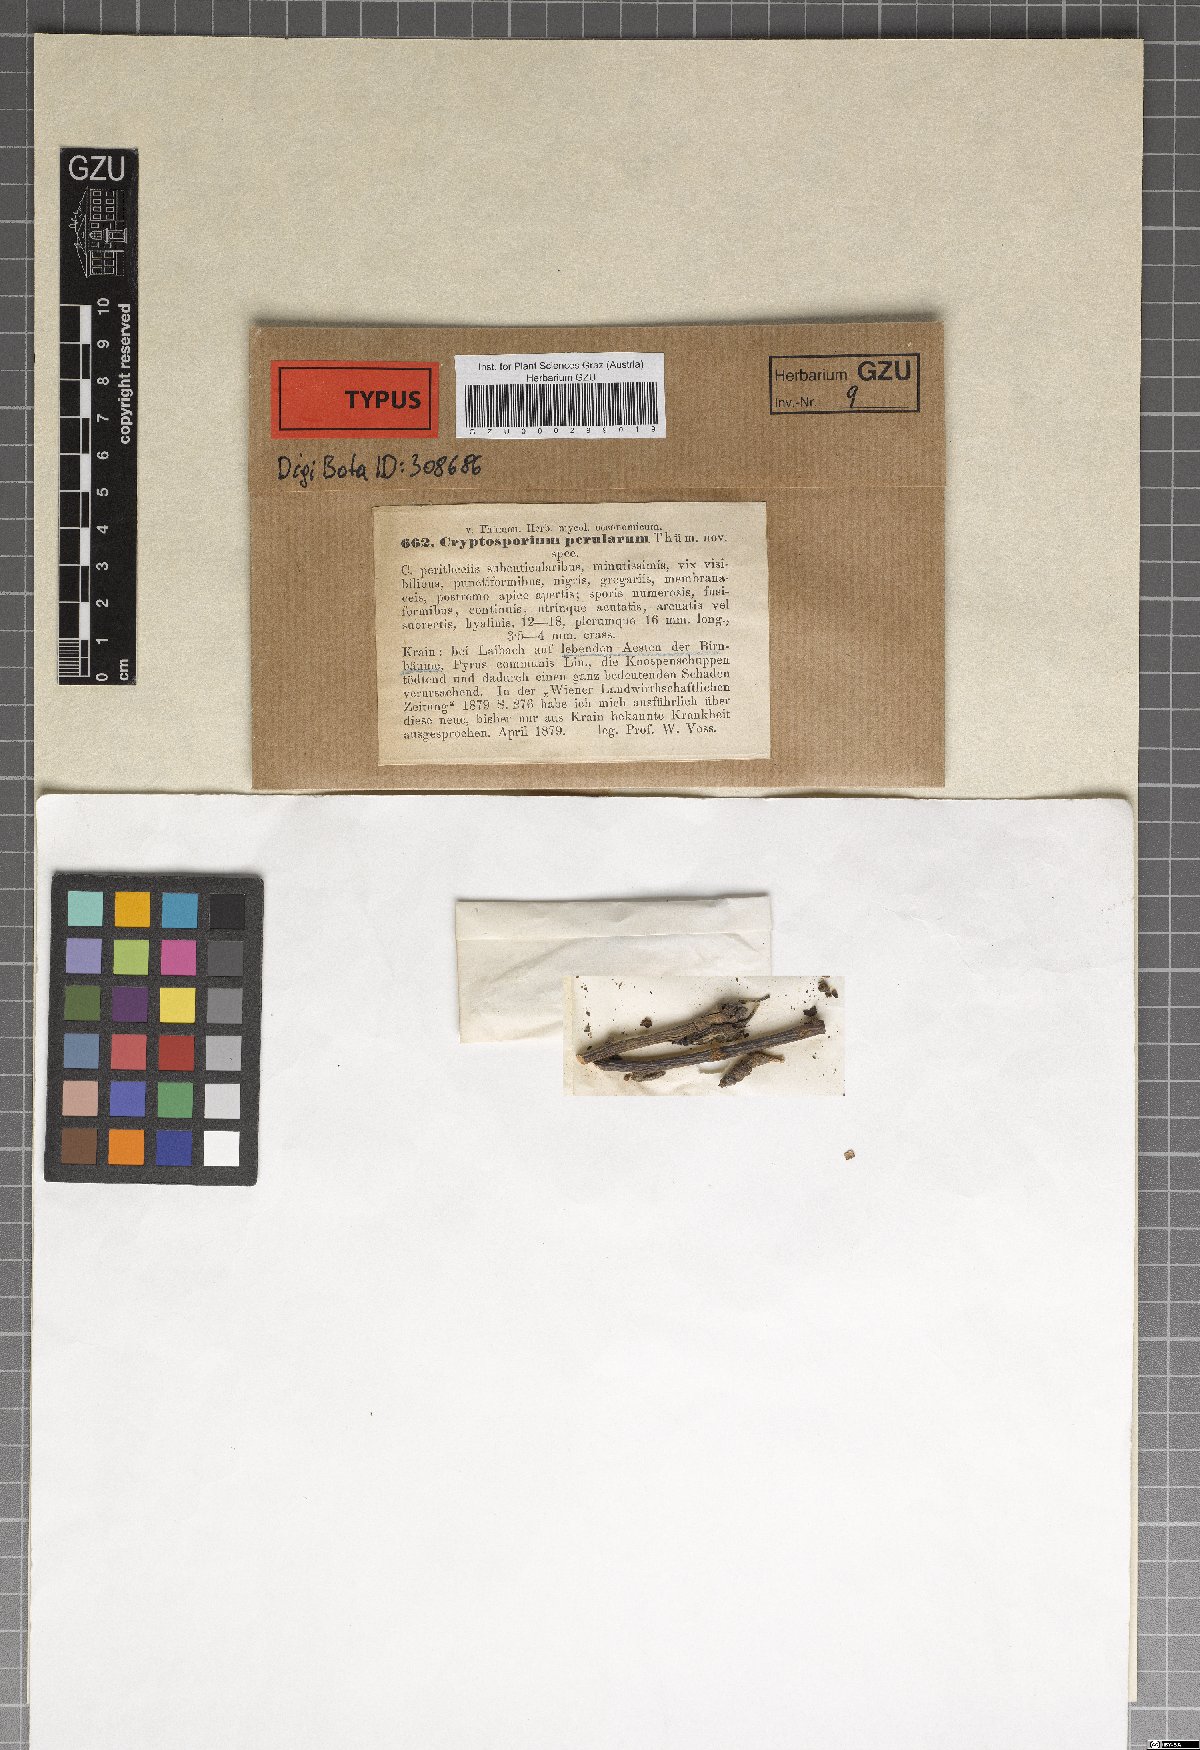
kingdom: Fungi
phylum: Ascomycota
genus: Cryptosporium
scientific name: Cryptosporium
